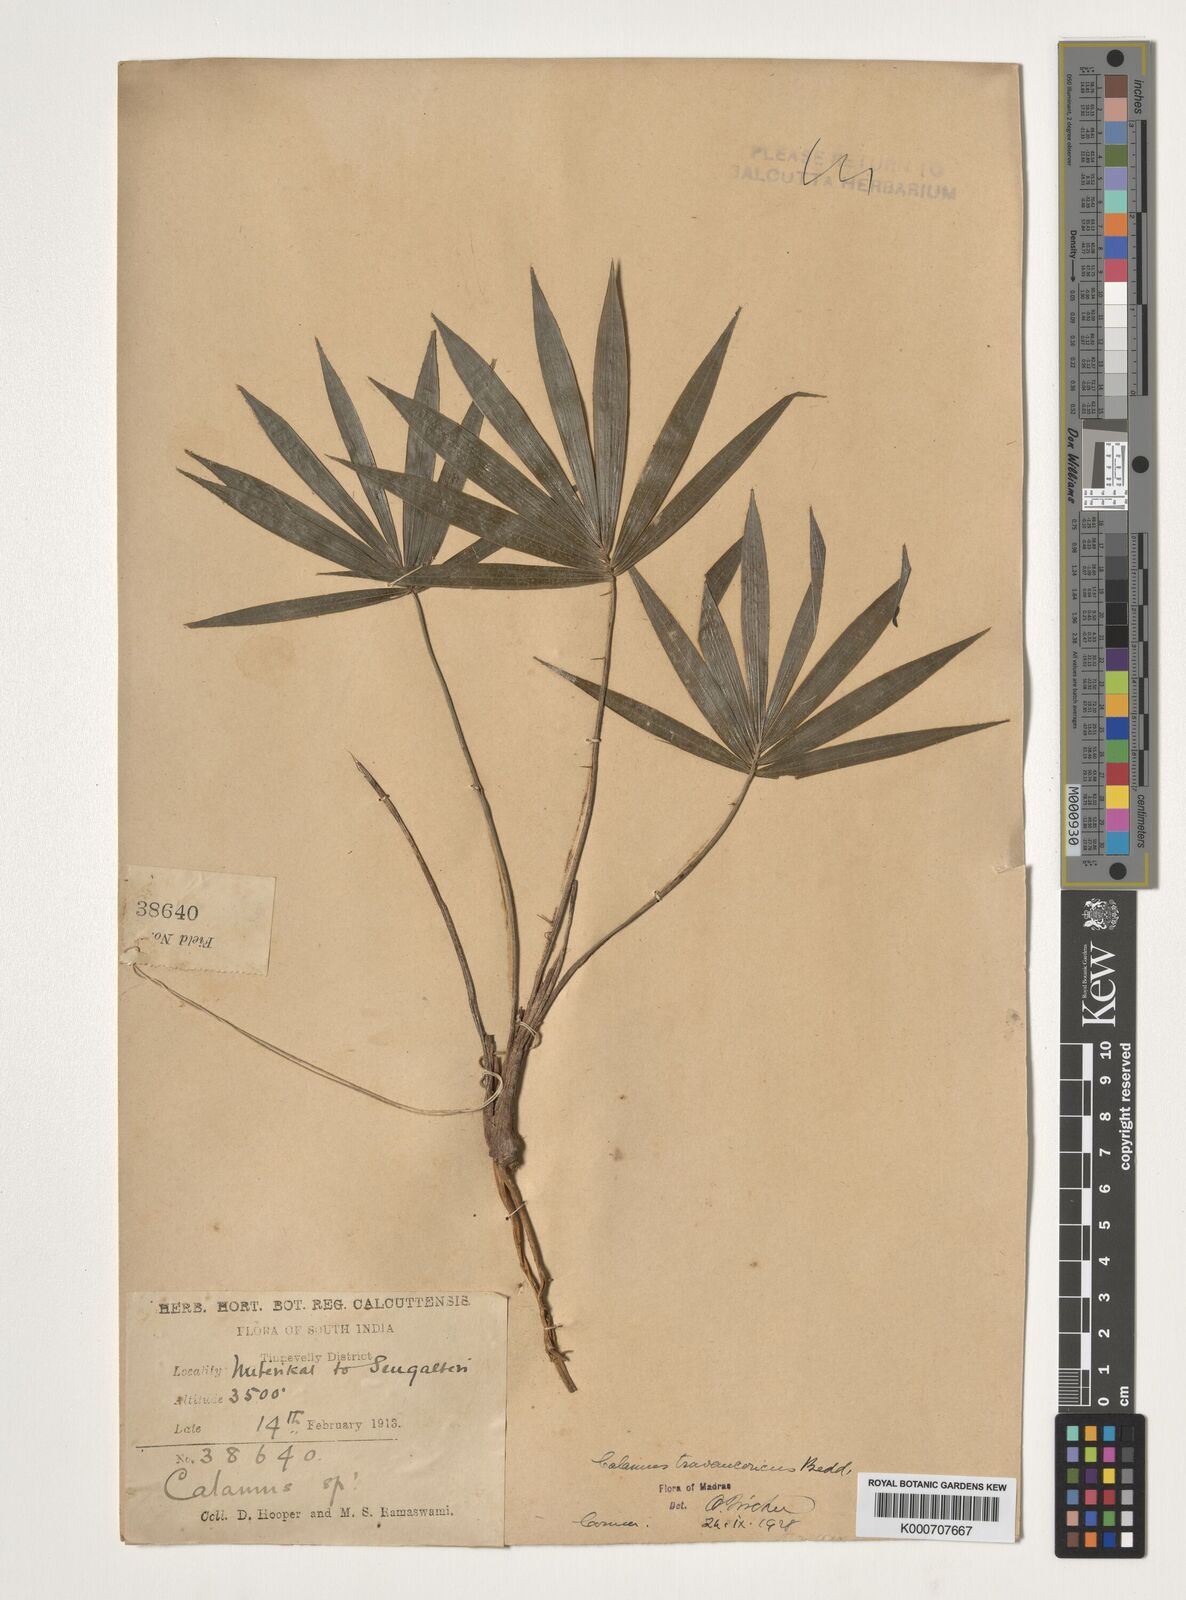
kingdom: Plantae
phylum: Tracheophyta
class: Liliopsida
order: Arecales
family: Arecaceae
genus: Calamus
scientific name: Calamus rheedei
